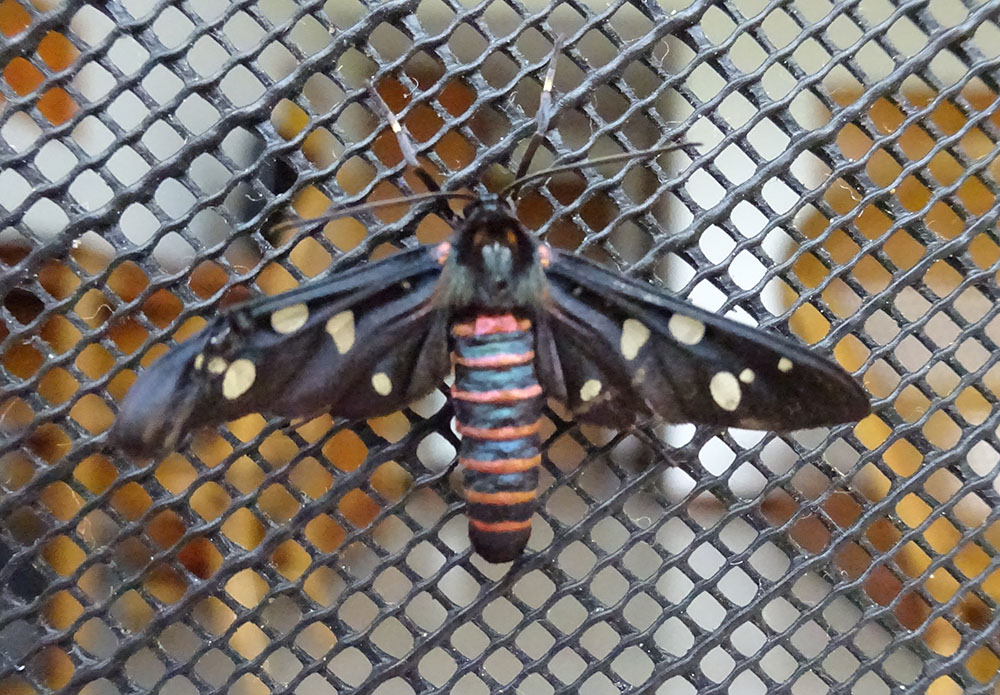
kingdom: Animalia
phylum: Arthropoda
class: Insecta
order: Lepidoptera
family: Erebidae
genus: Amata
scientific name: Amata passalis
